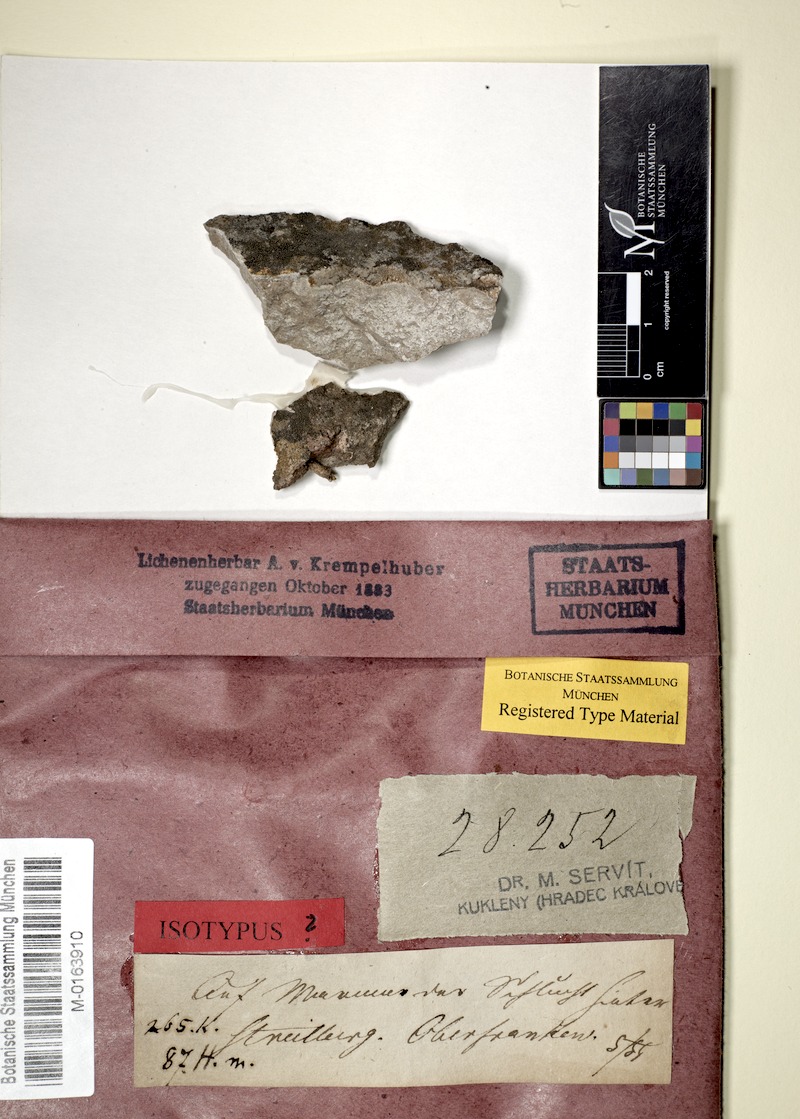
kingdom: Fungi
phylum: Ascomycota
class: Eurotiomycetes
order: Verrucariales
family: Verrucariaceae
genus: Verruculopsis
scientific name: Verruculopsis
